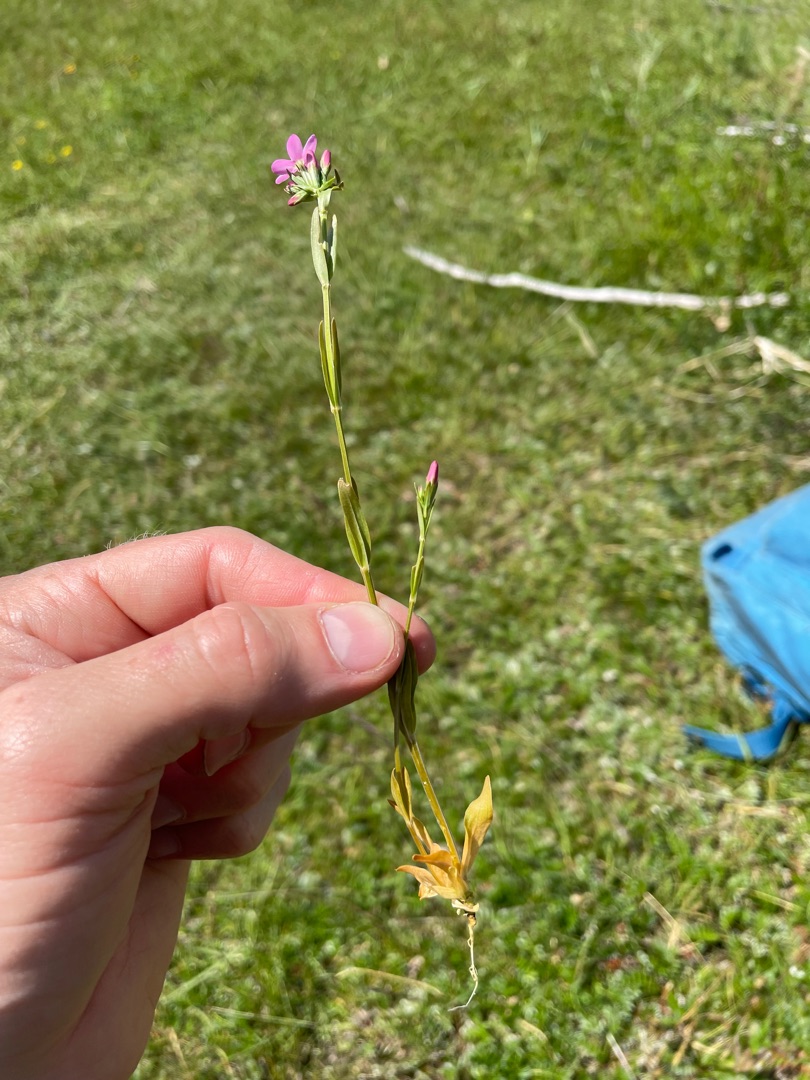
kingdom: Plantae
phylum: Tracheophyta
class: Magnoliopsida
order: Gentianales
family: Gentianaceae
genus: Centaurium
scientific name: Centaurium littorale
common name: Strand-tusindgylden
